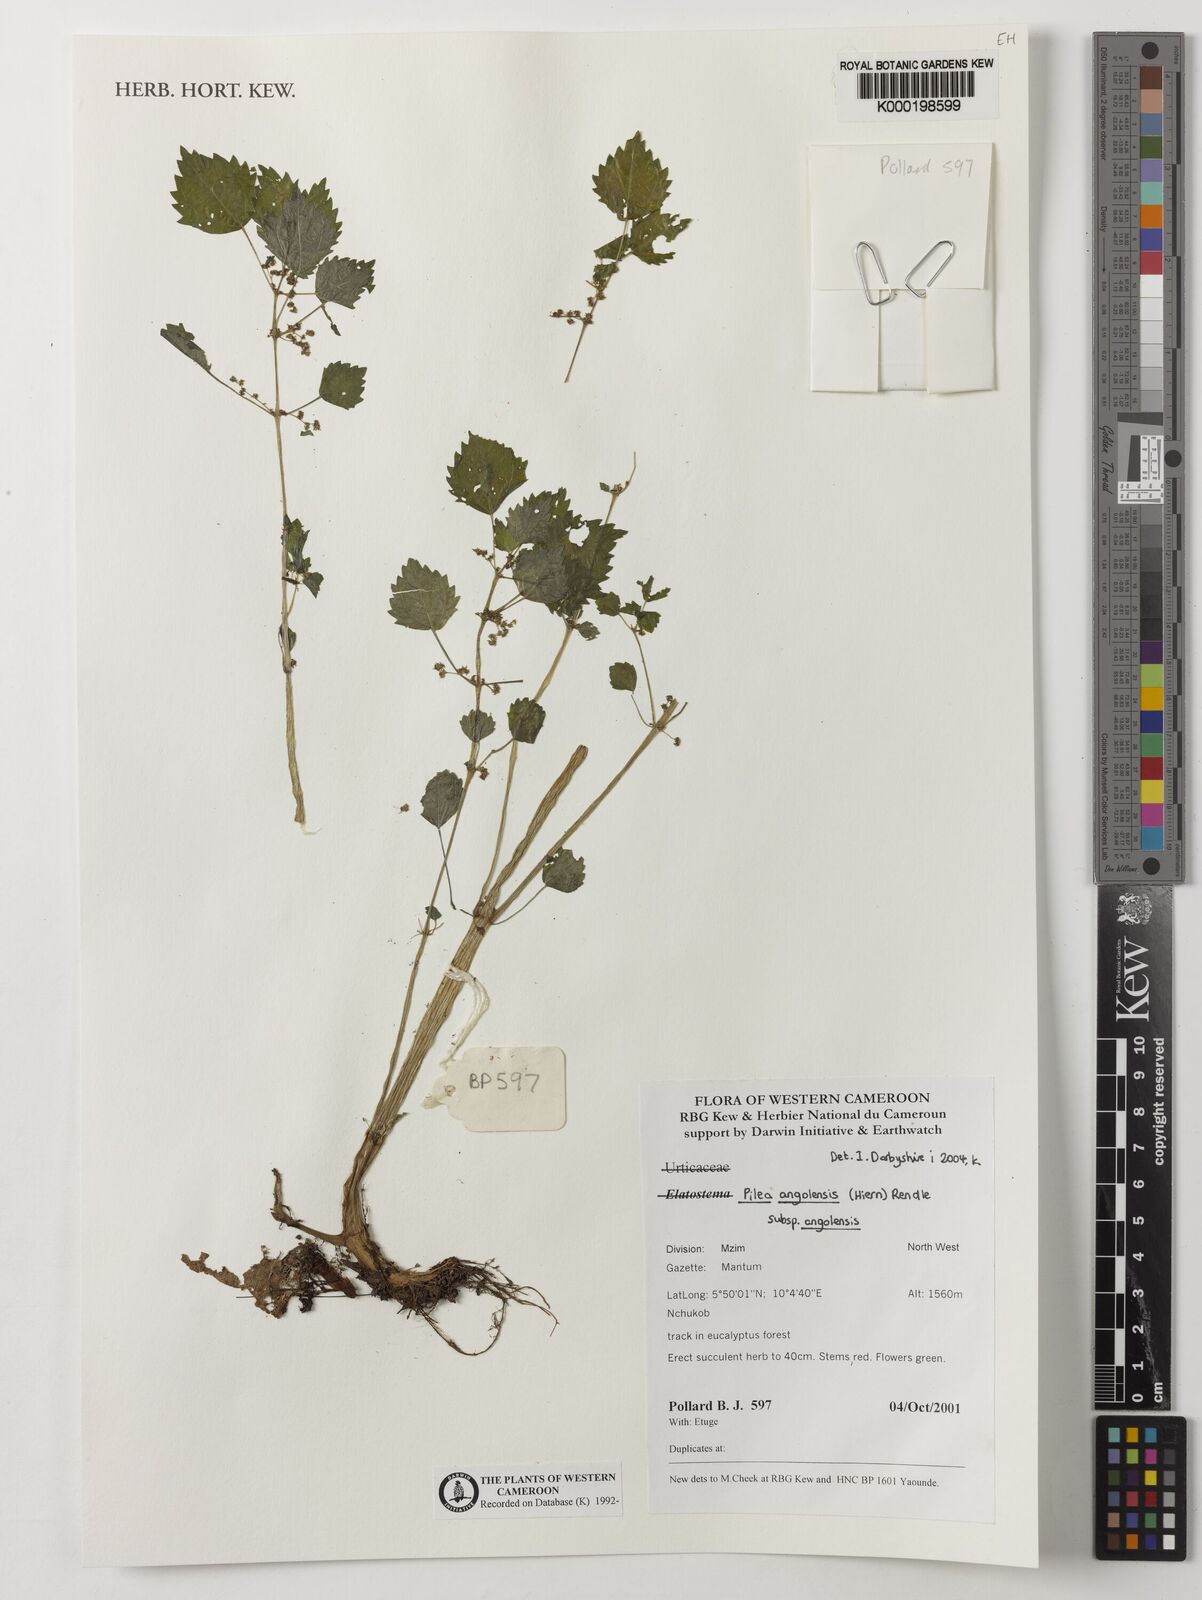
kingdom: Plantae
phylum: Tracheophyta
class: Magnoliopsida
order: Rosales
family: Urticaceae
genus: Pilea
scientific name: Pilea angolensis
